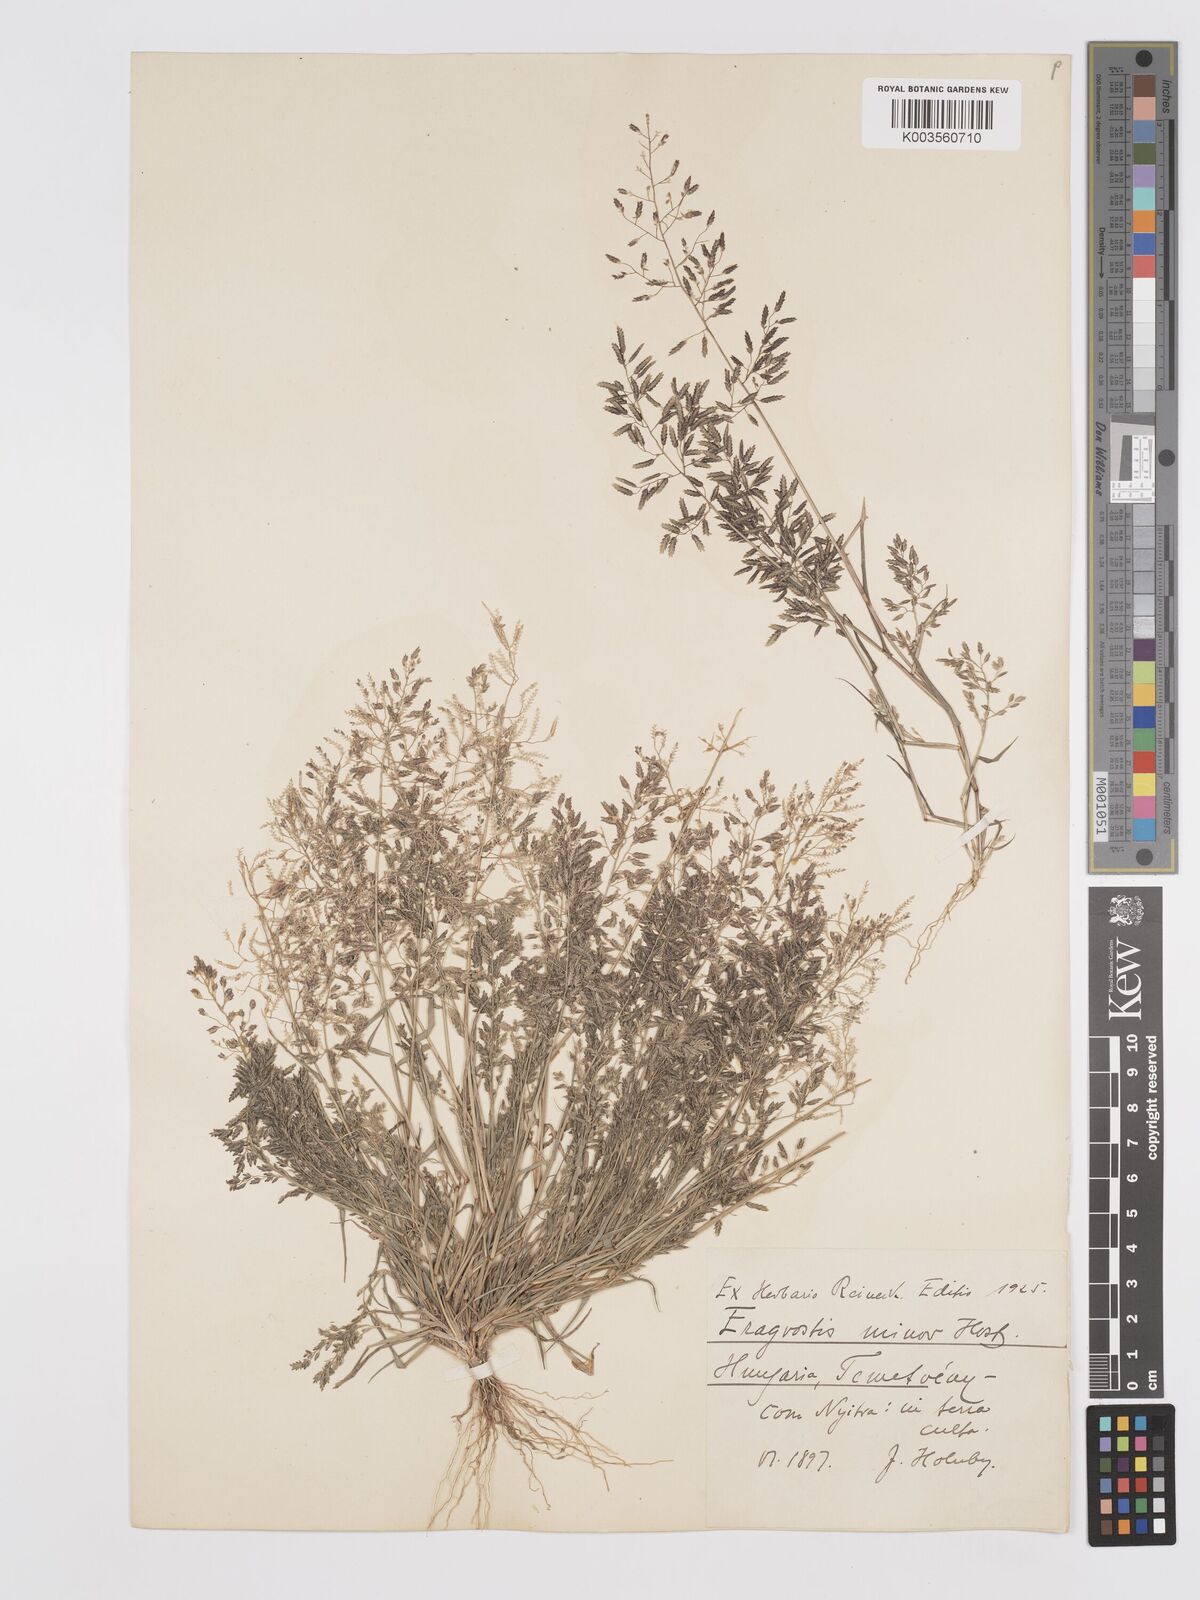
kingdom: Plantae
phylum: Tracheophyta
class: Liliopsida
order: Poales
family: Poaceae
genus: Eragrostis
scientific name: Eragrostis minor
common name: Small love-grass
